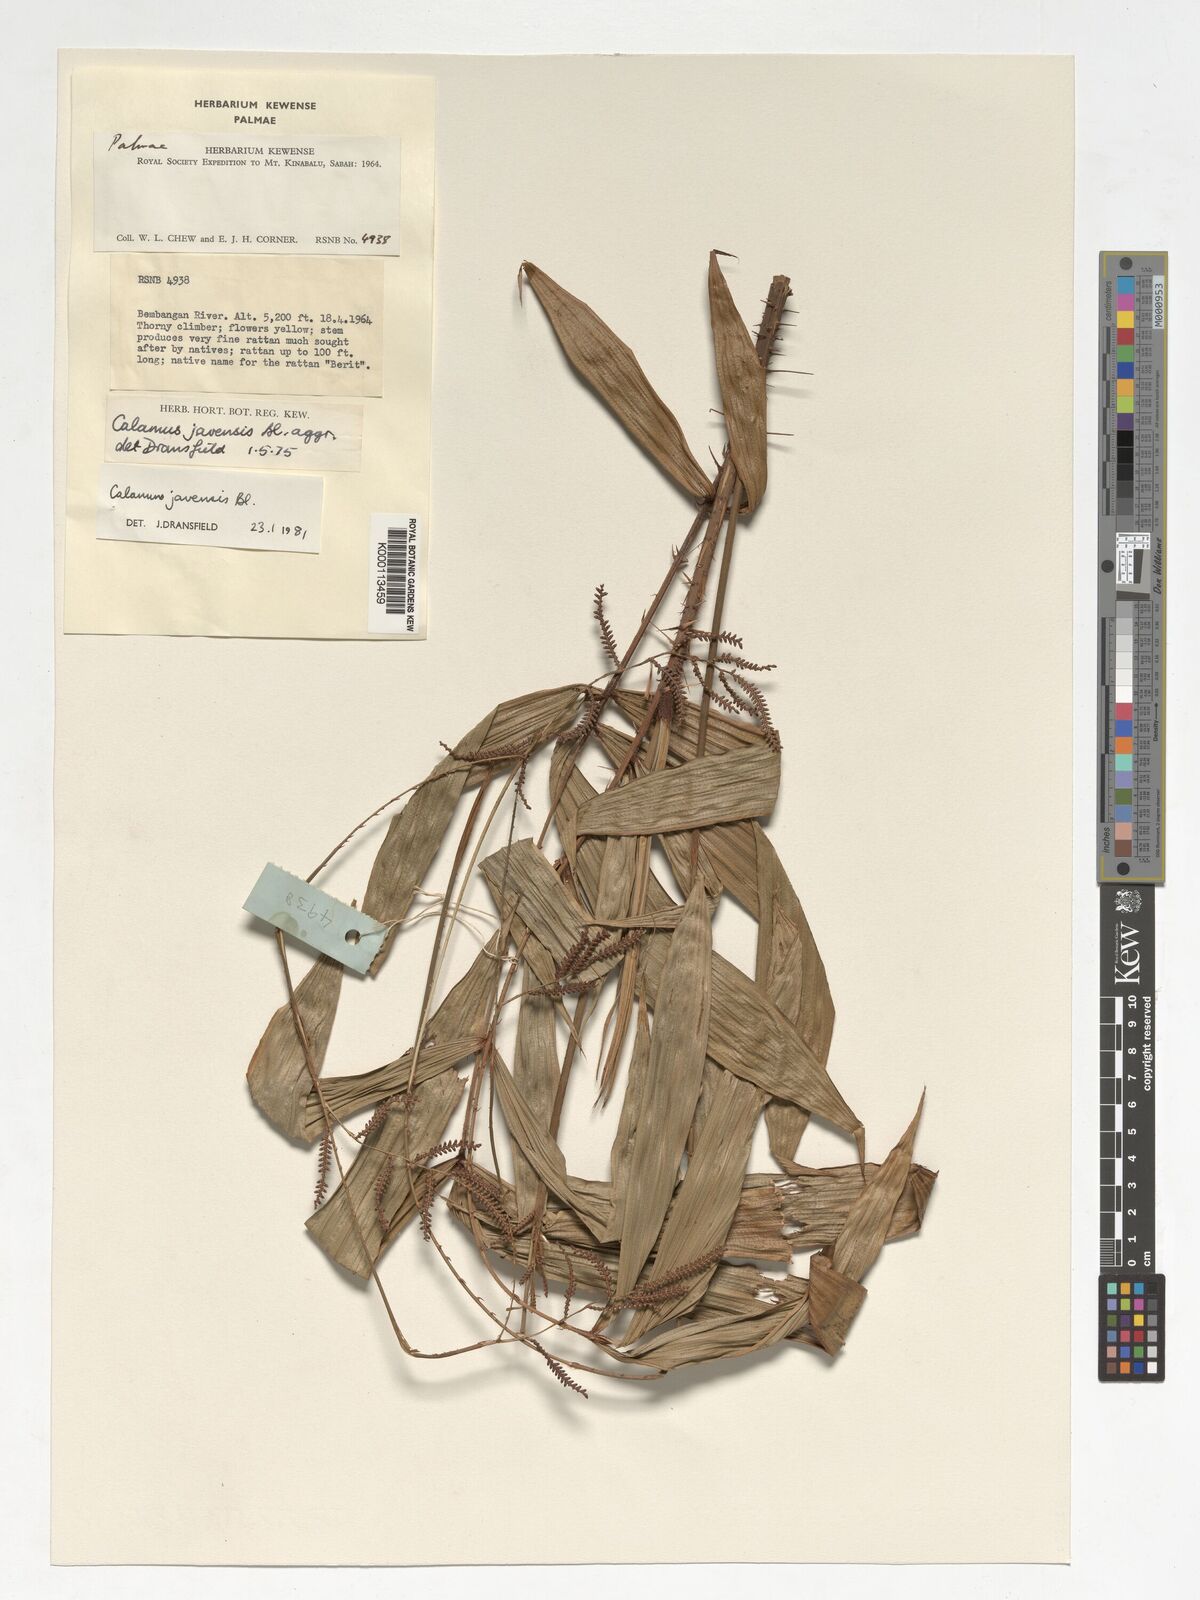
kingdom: Plantae
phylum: Tracheophyta
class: Liliopsida
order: Arecales
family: Arecaceae
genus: Calamus
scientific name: Calamus javensis
